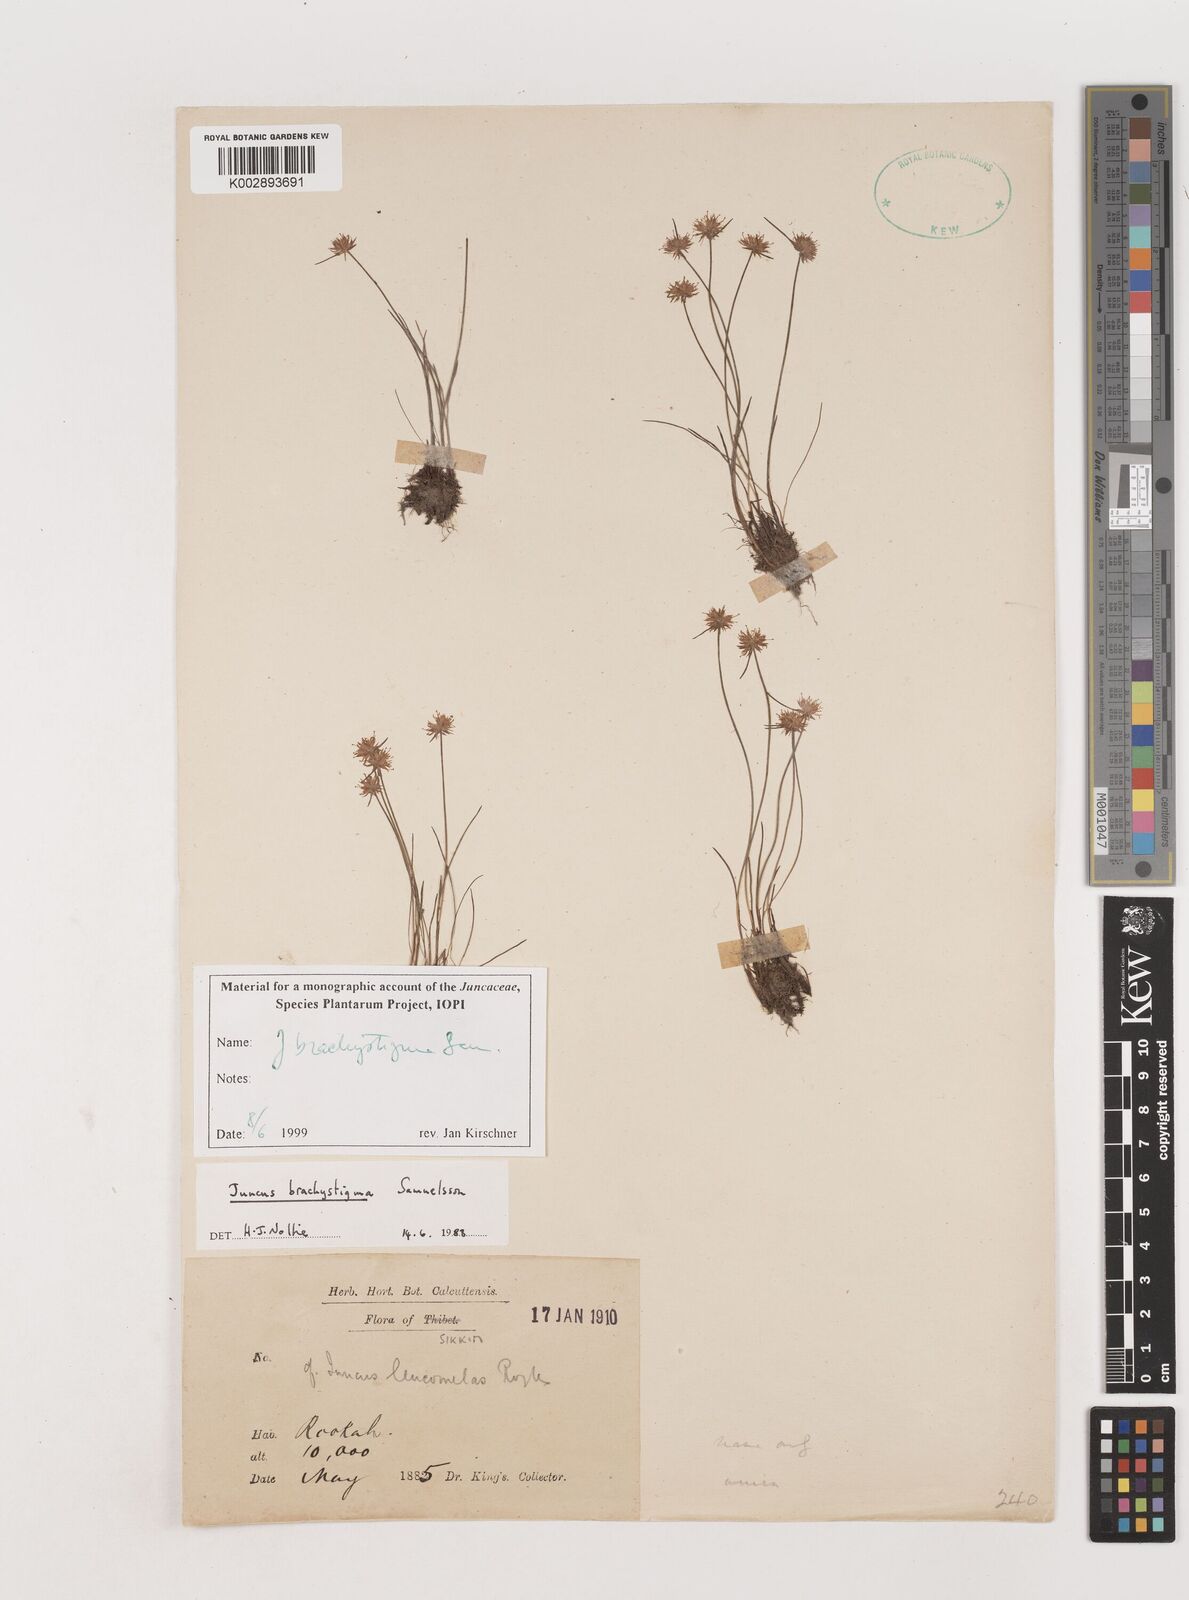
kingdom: Plantae
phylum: Tracheophyta
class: Liliopsida
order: Poales
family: Juncaceae
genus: Juncus
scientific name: Juncus brachystigma
